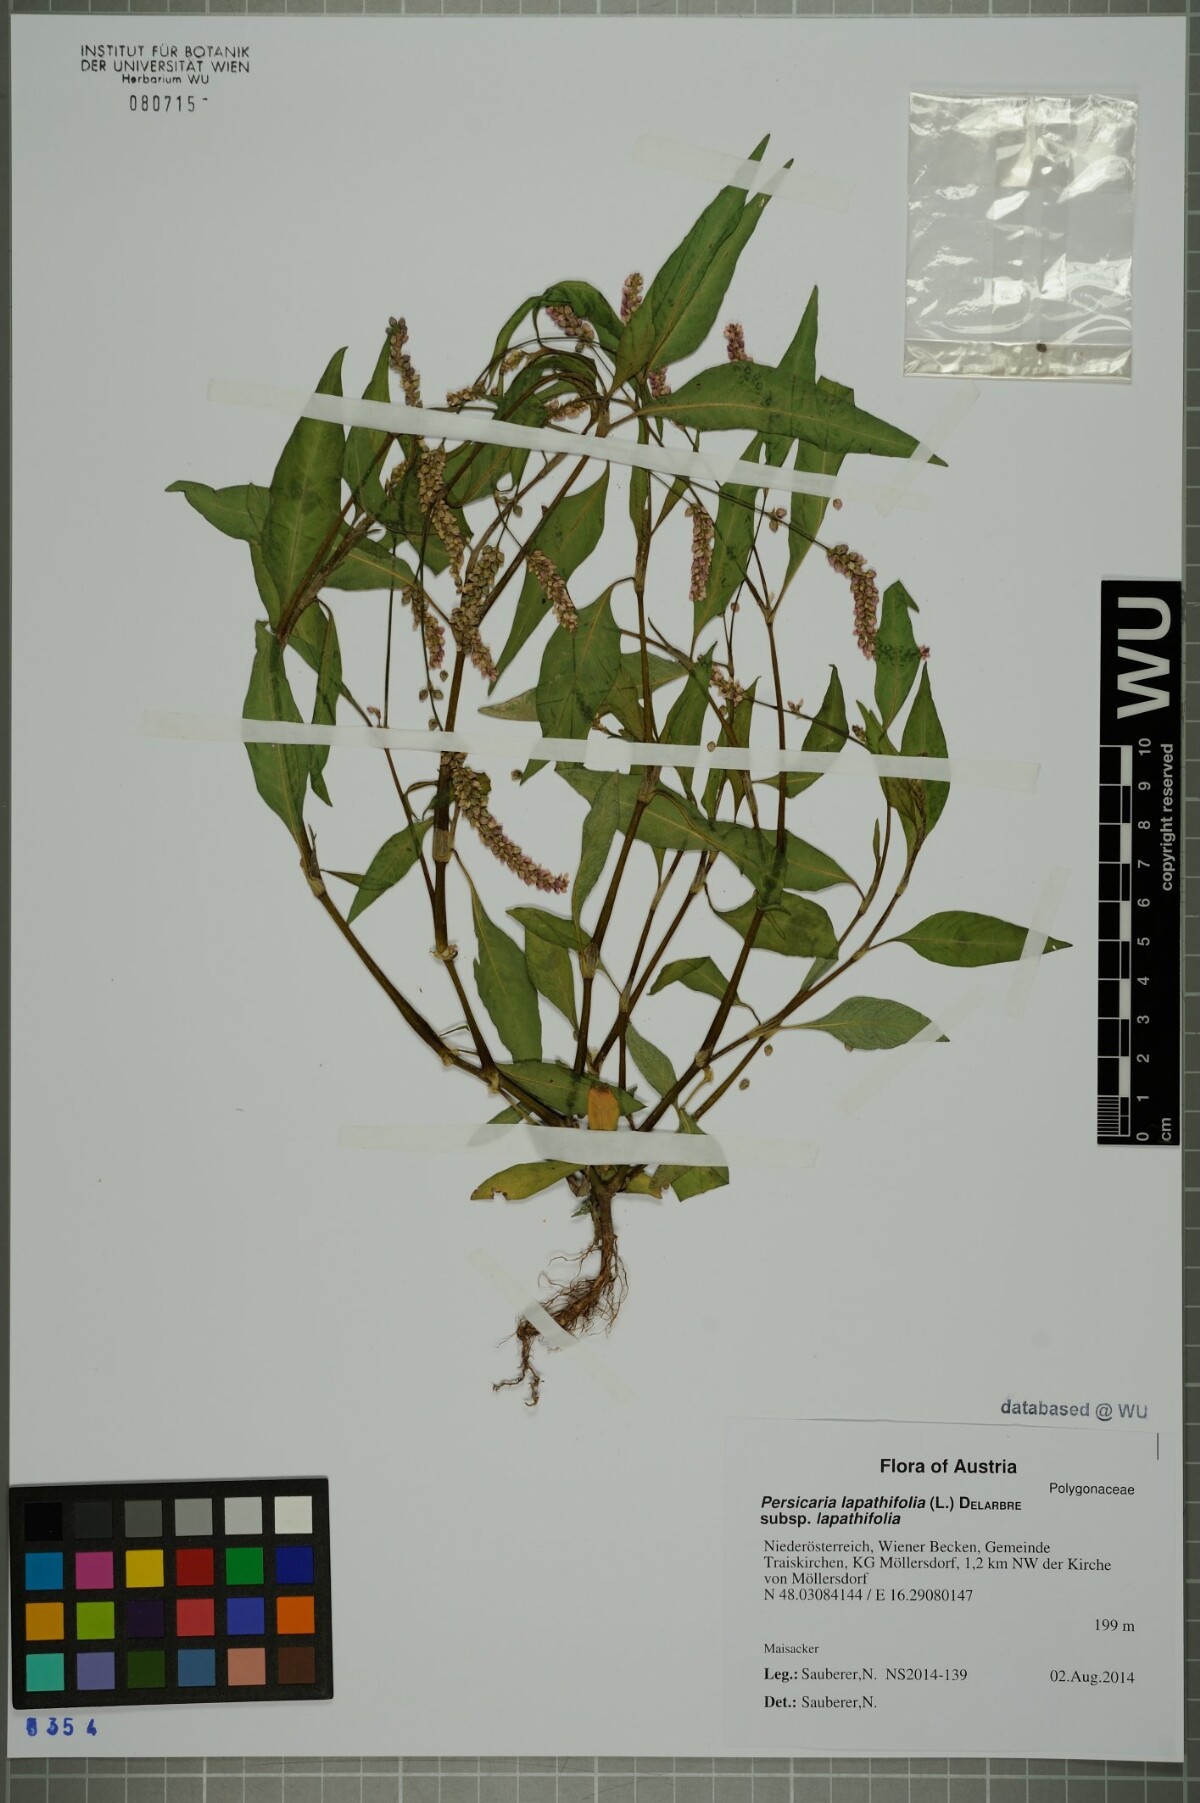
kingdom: Plantae
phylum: Tracheophyta
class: Magnoliopsida
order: Caryophyllales
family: Polygonaceae
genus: Persicaria
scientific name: Persicaria lapathifolia
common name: Curlytop knotweed
